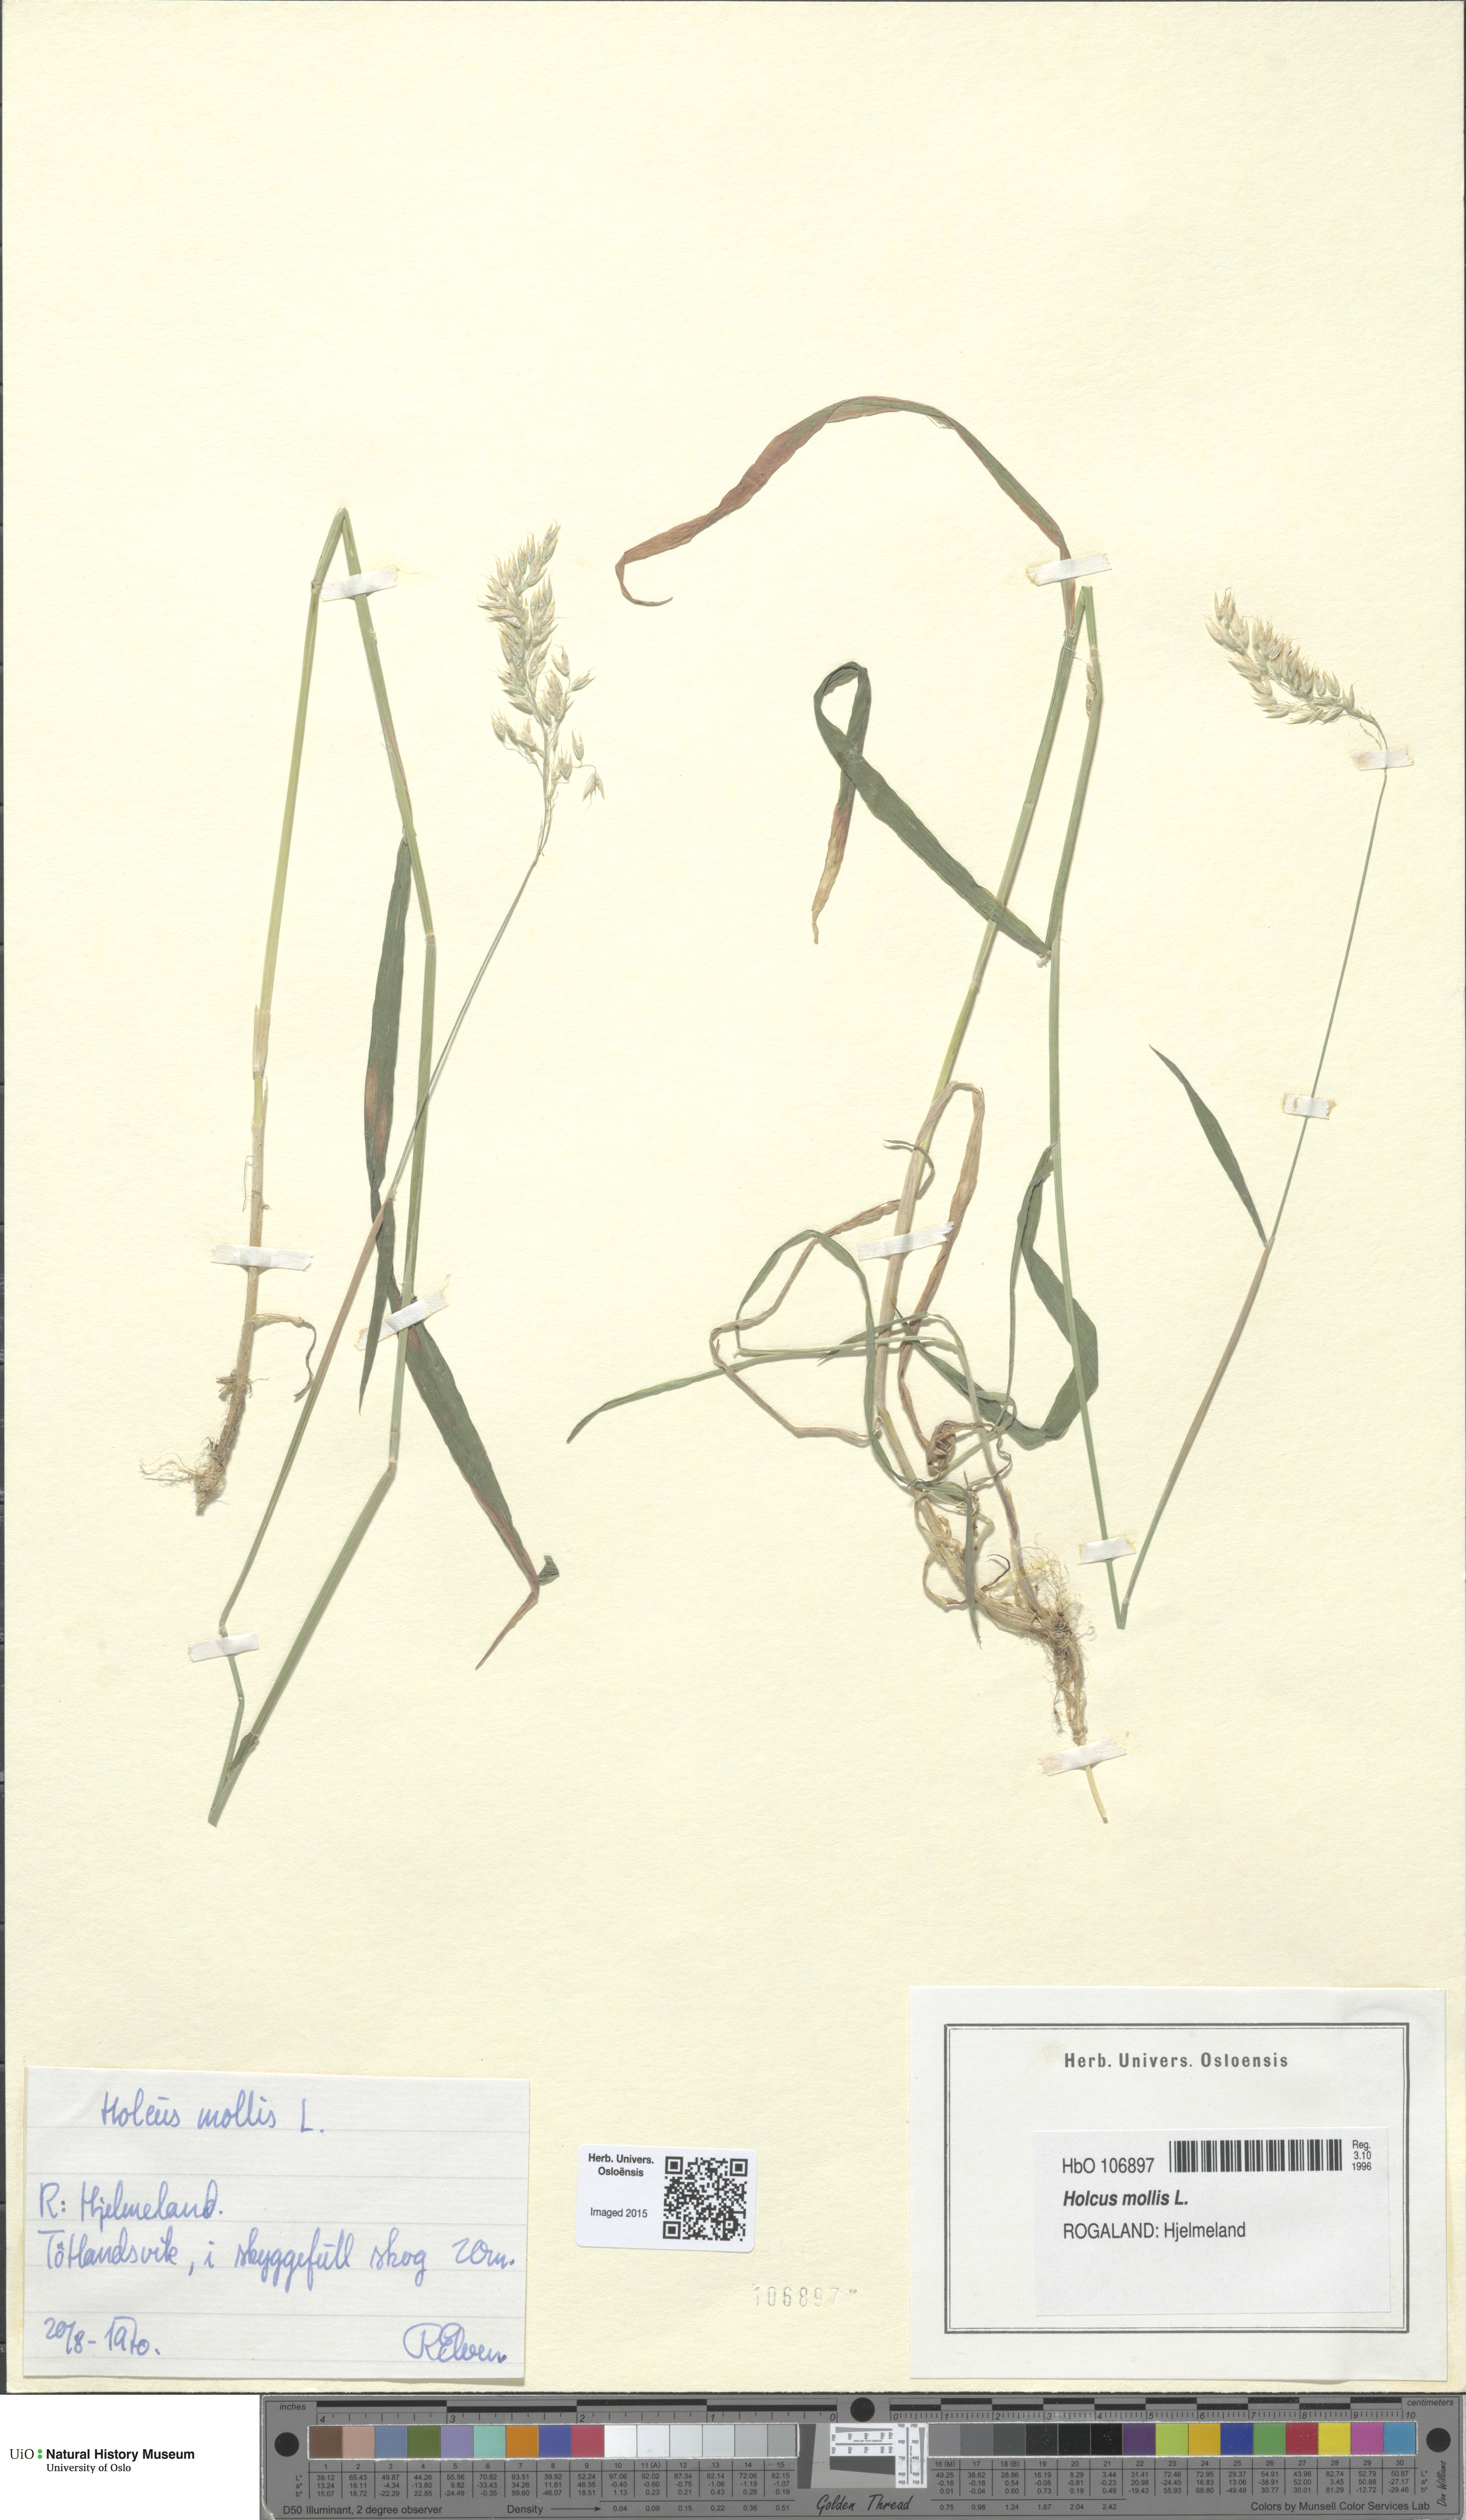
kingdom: Plantae
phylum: Tracheophyta
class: Liliopsida
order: Poales
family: Poaceae
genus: Holcus
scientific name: Holcus mollis
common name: Creeping velvetgrass
